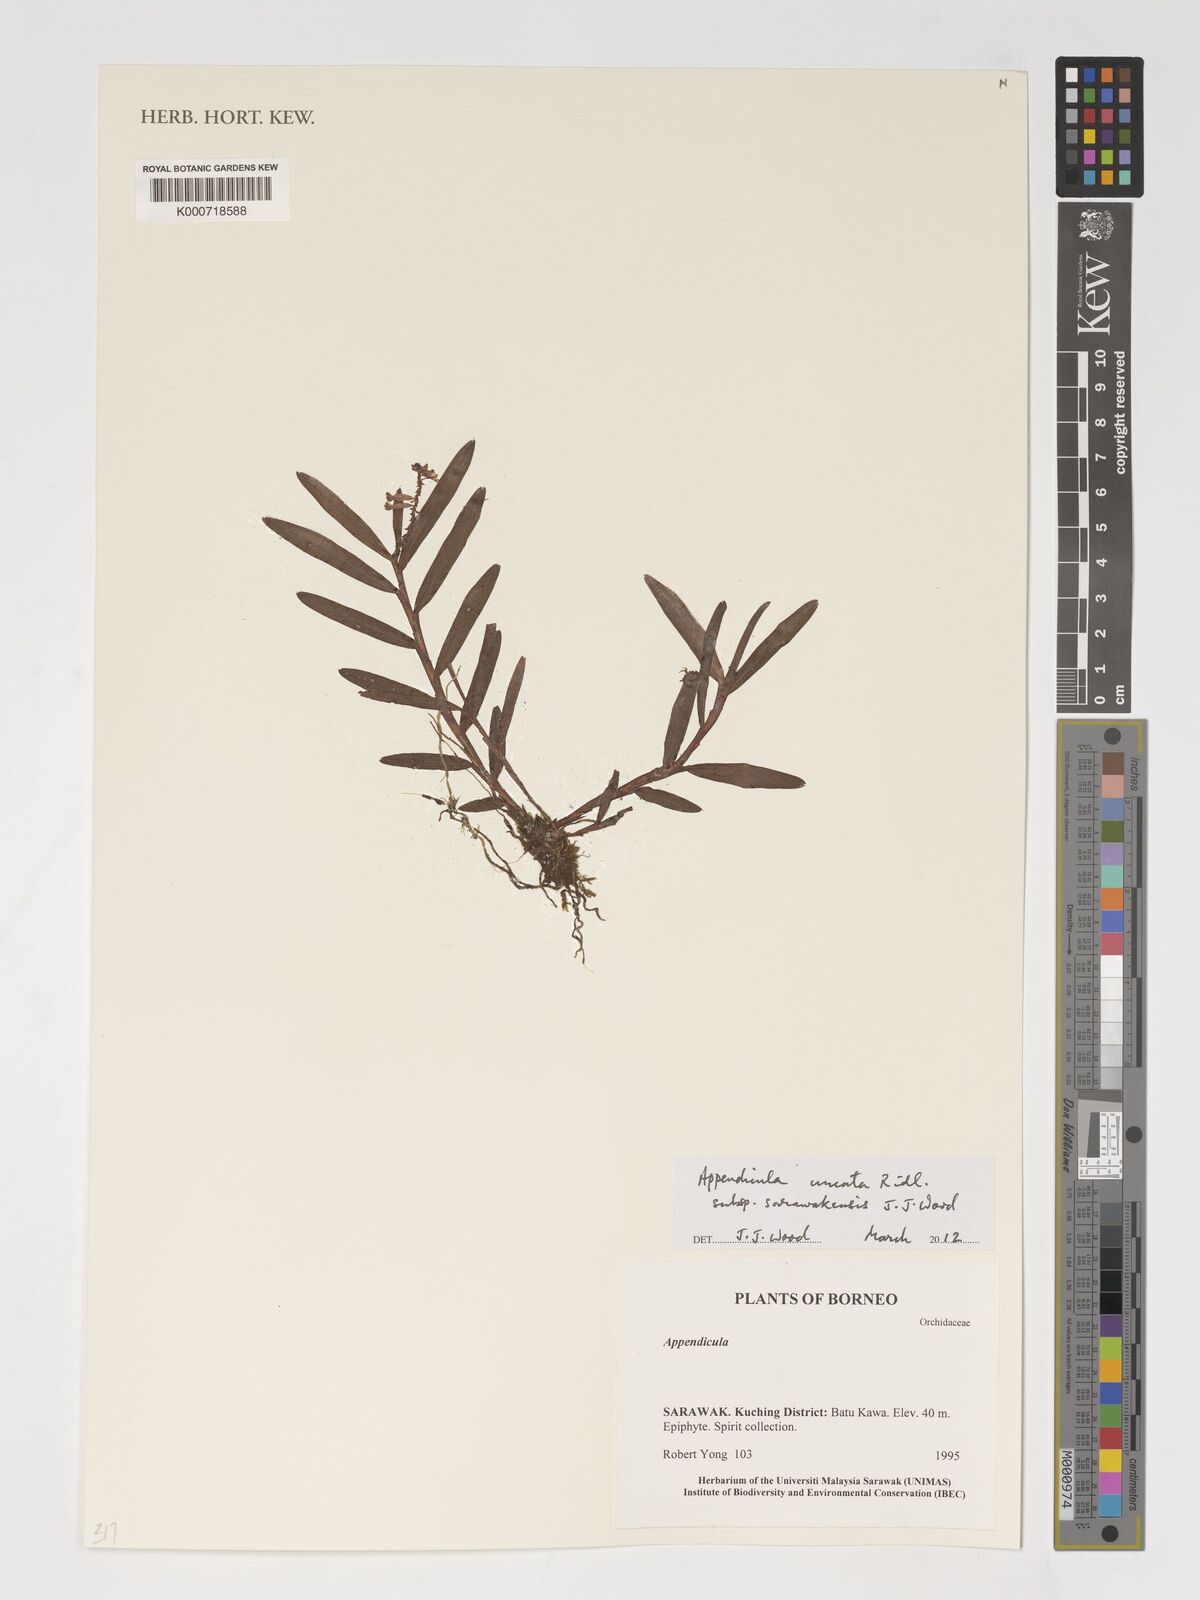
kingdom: Plantae
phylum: Tracheophyta
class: Liliopsida
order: Asparagales
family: Orchidaceae
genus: Appendicula
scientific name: Appendicula uncata
